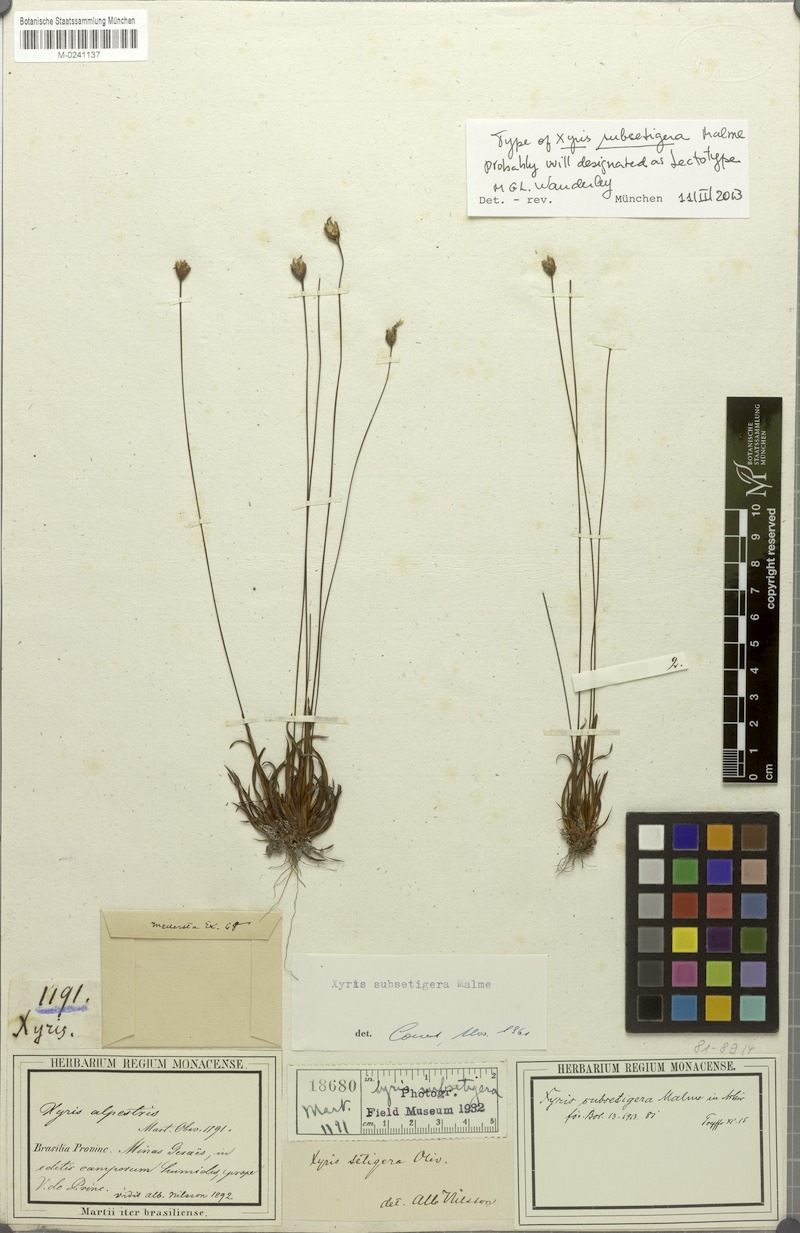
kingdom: Plantae
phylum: Tracheophyta
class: Liliopsida
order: Poales
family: Xyridaceae
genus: Xyris
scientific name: Xyris subsetigera
